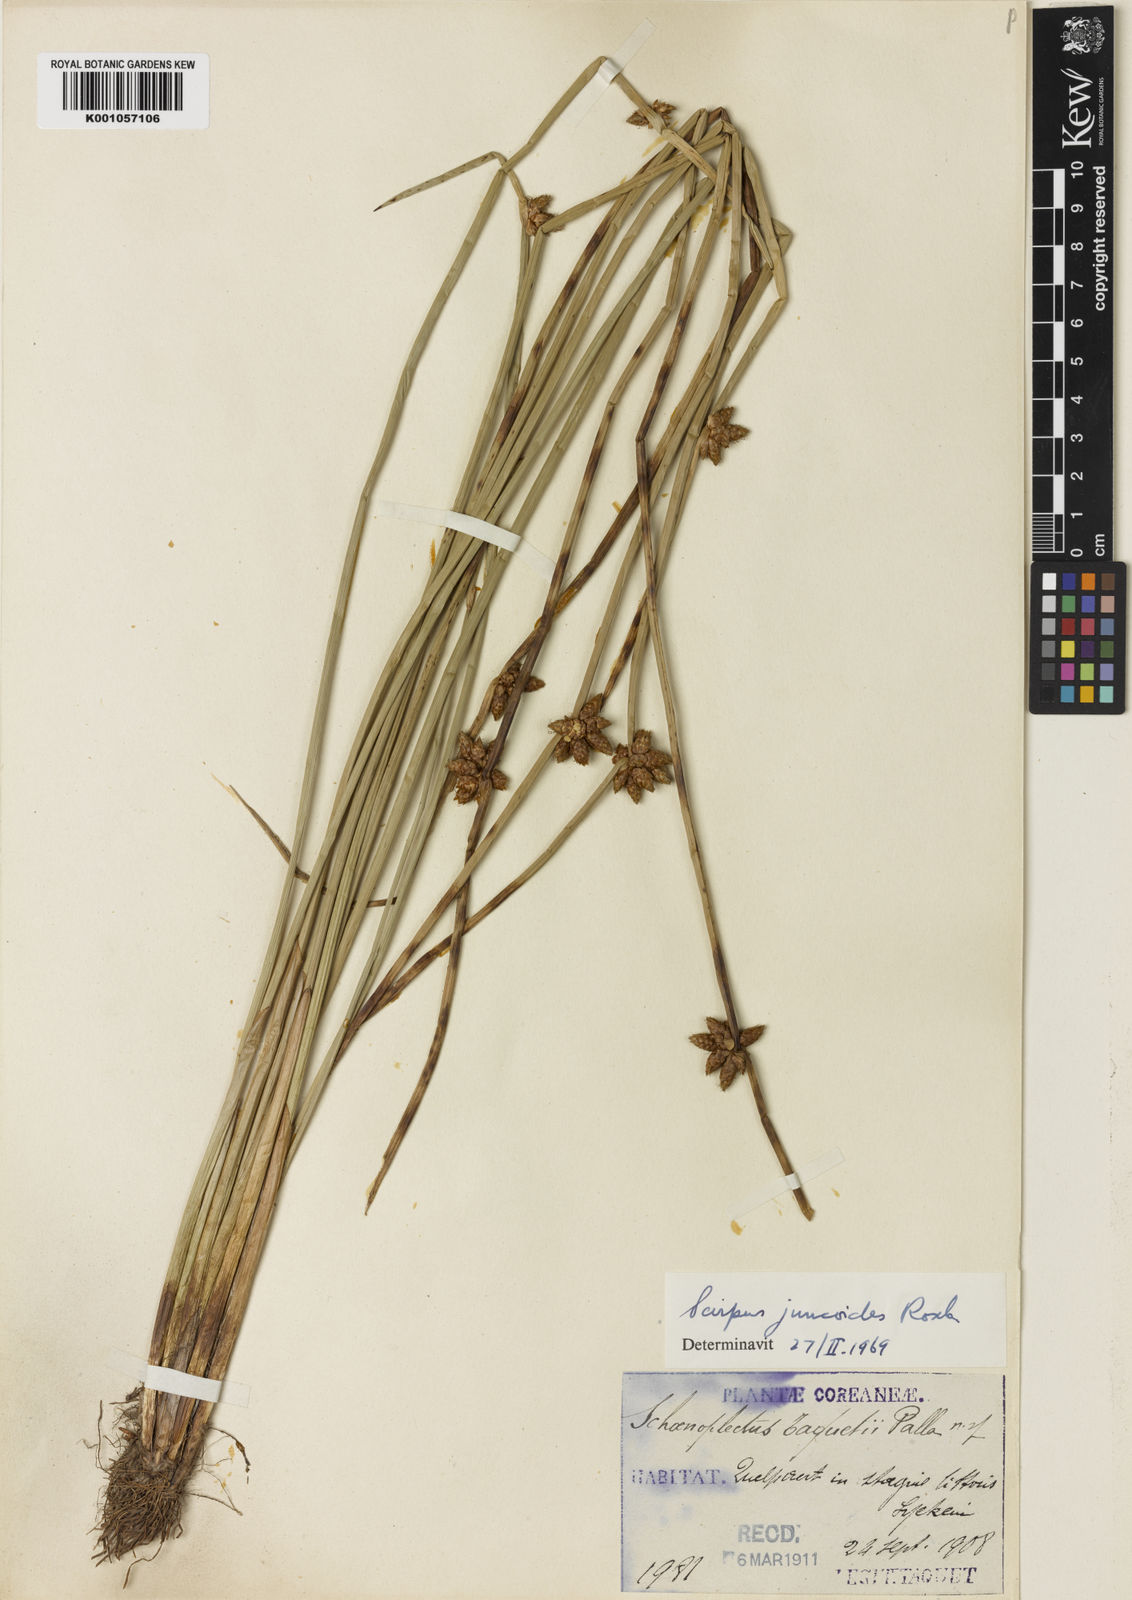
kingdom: Plantae
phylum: Tracheophyta
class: Liliopsida
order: Poales
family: Cyperaceae
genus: Schoenoplectiella
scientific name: Schoenoplectiella juncoides
